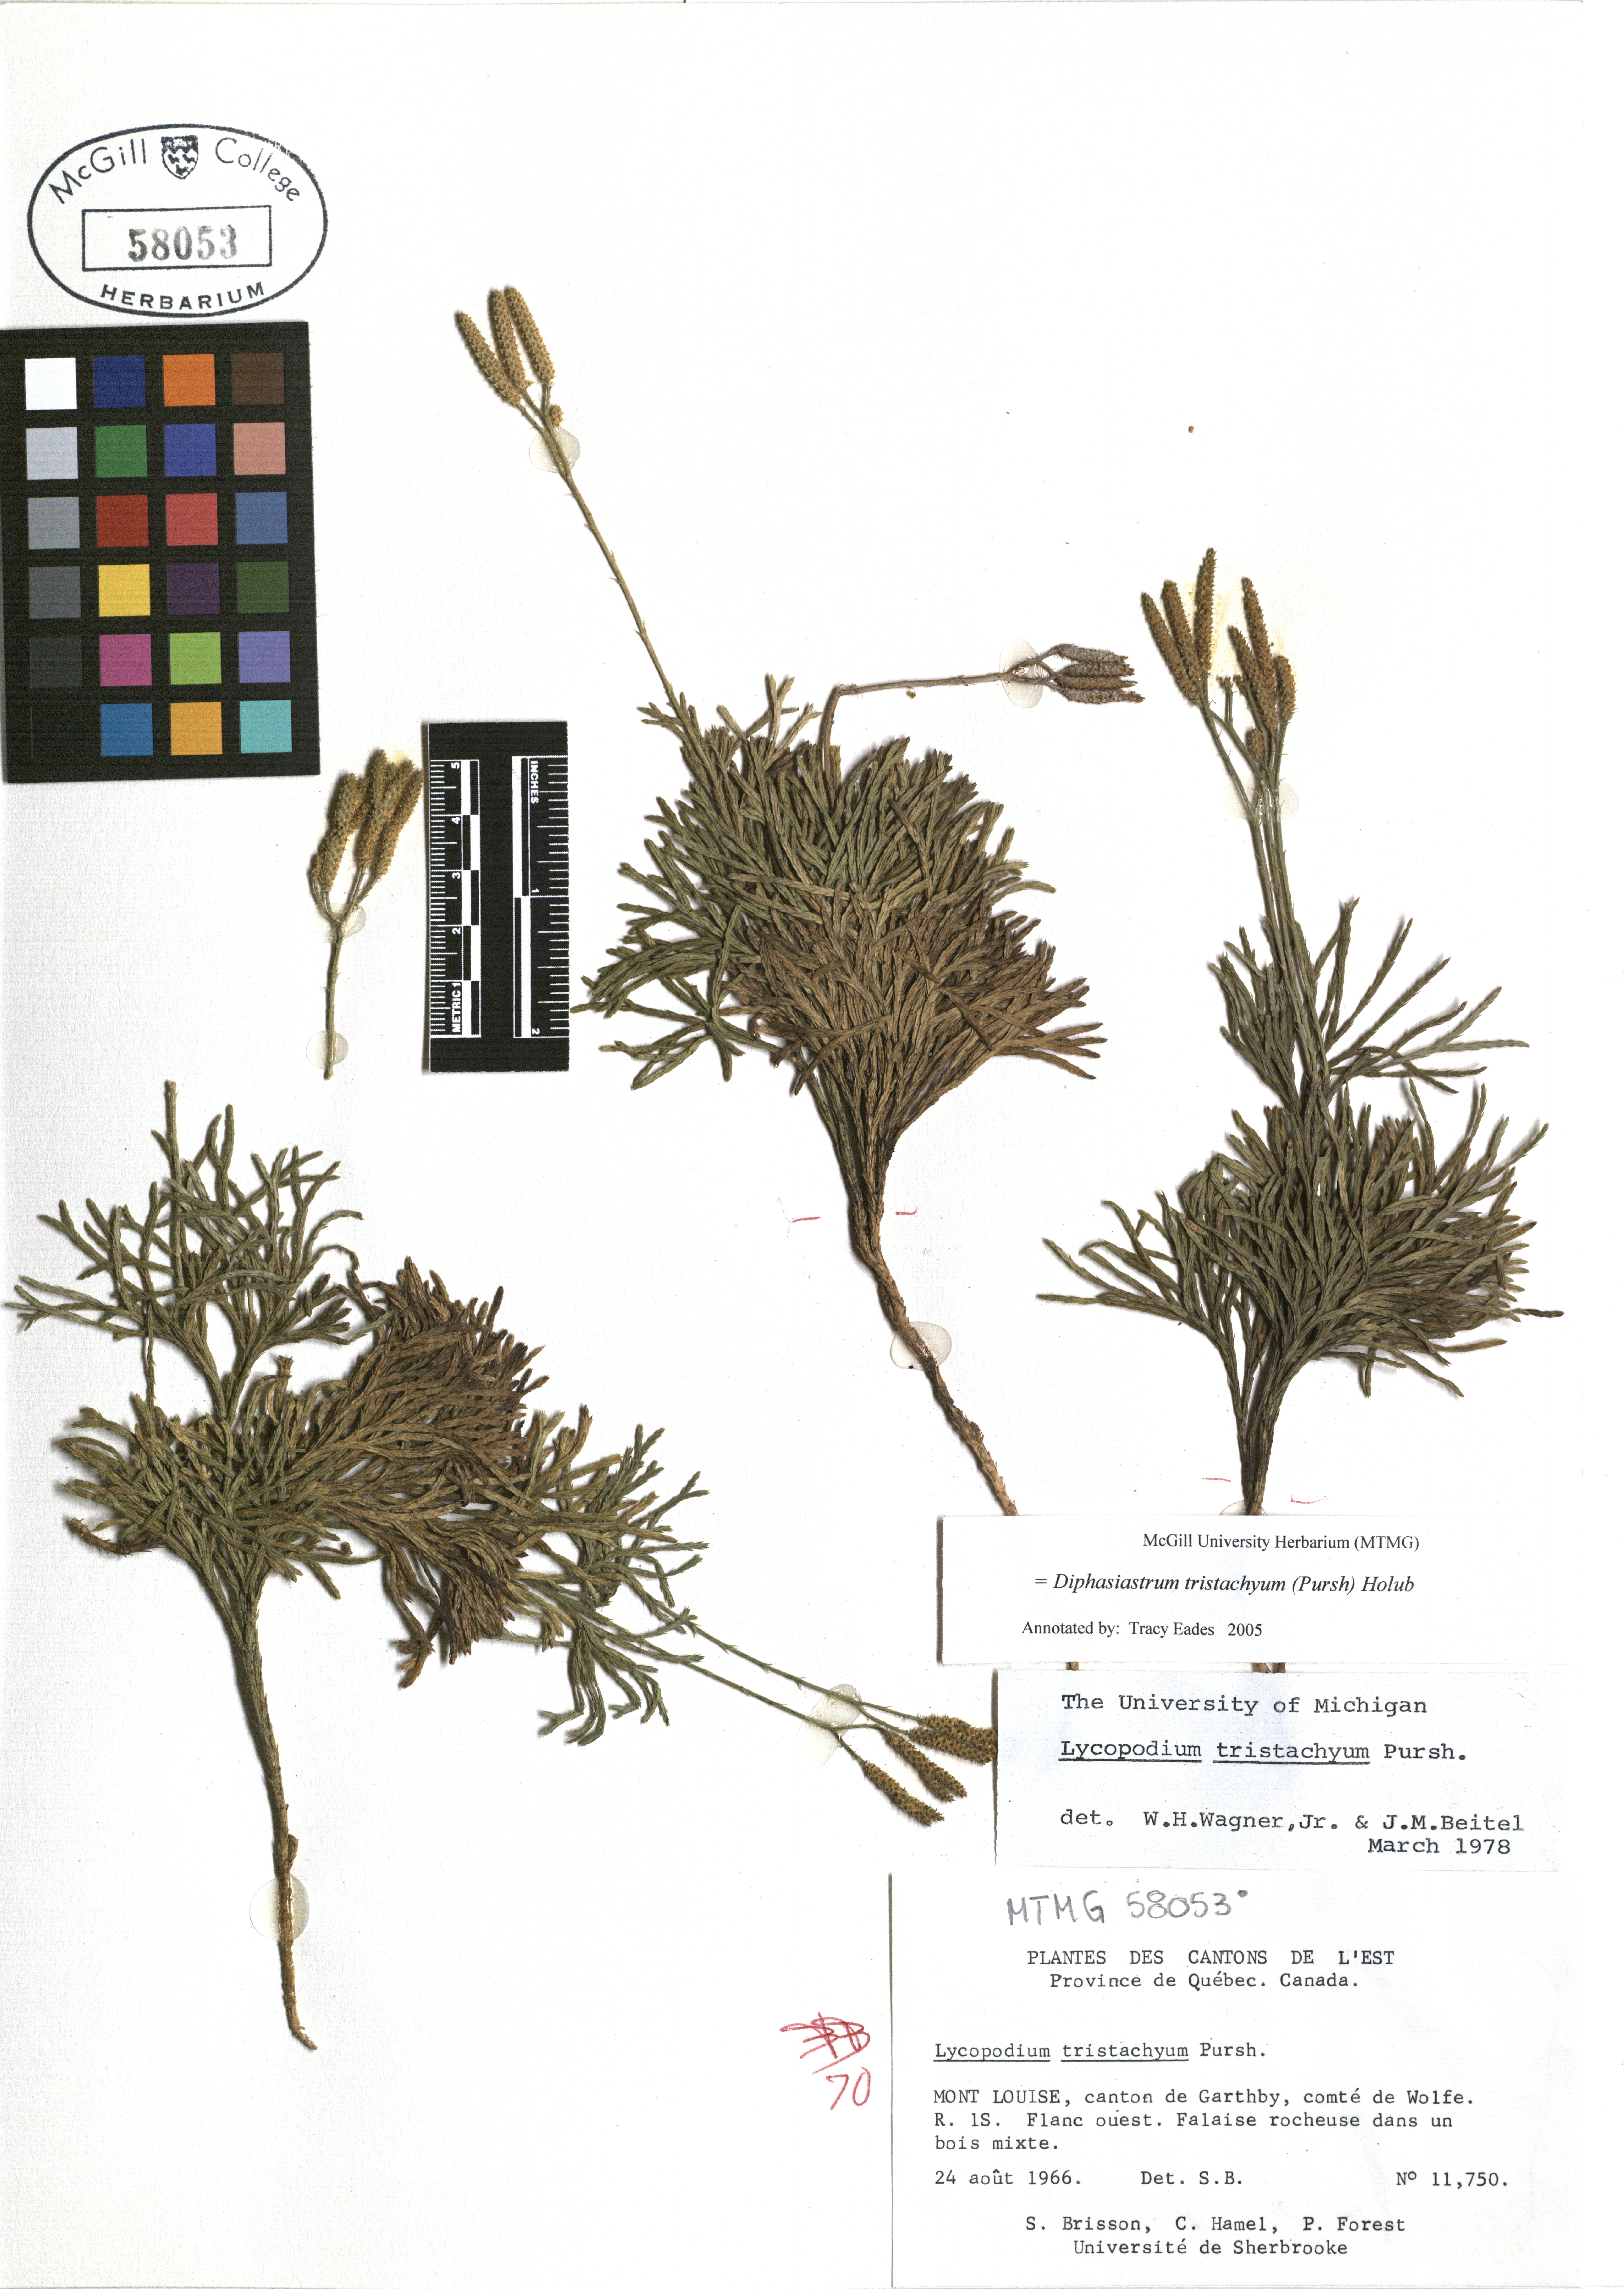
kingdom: Plantae
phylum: Tracheophyta
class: Lycopodiopsida
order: Lycopodiales
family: Lycopodiaceae
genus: Diphasiastrum
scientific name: Diphasiastrum tristachyum
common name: Blue ground-cedar
